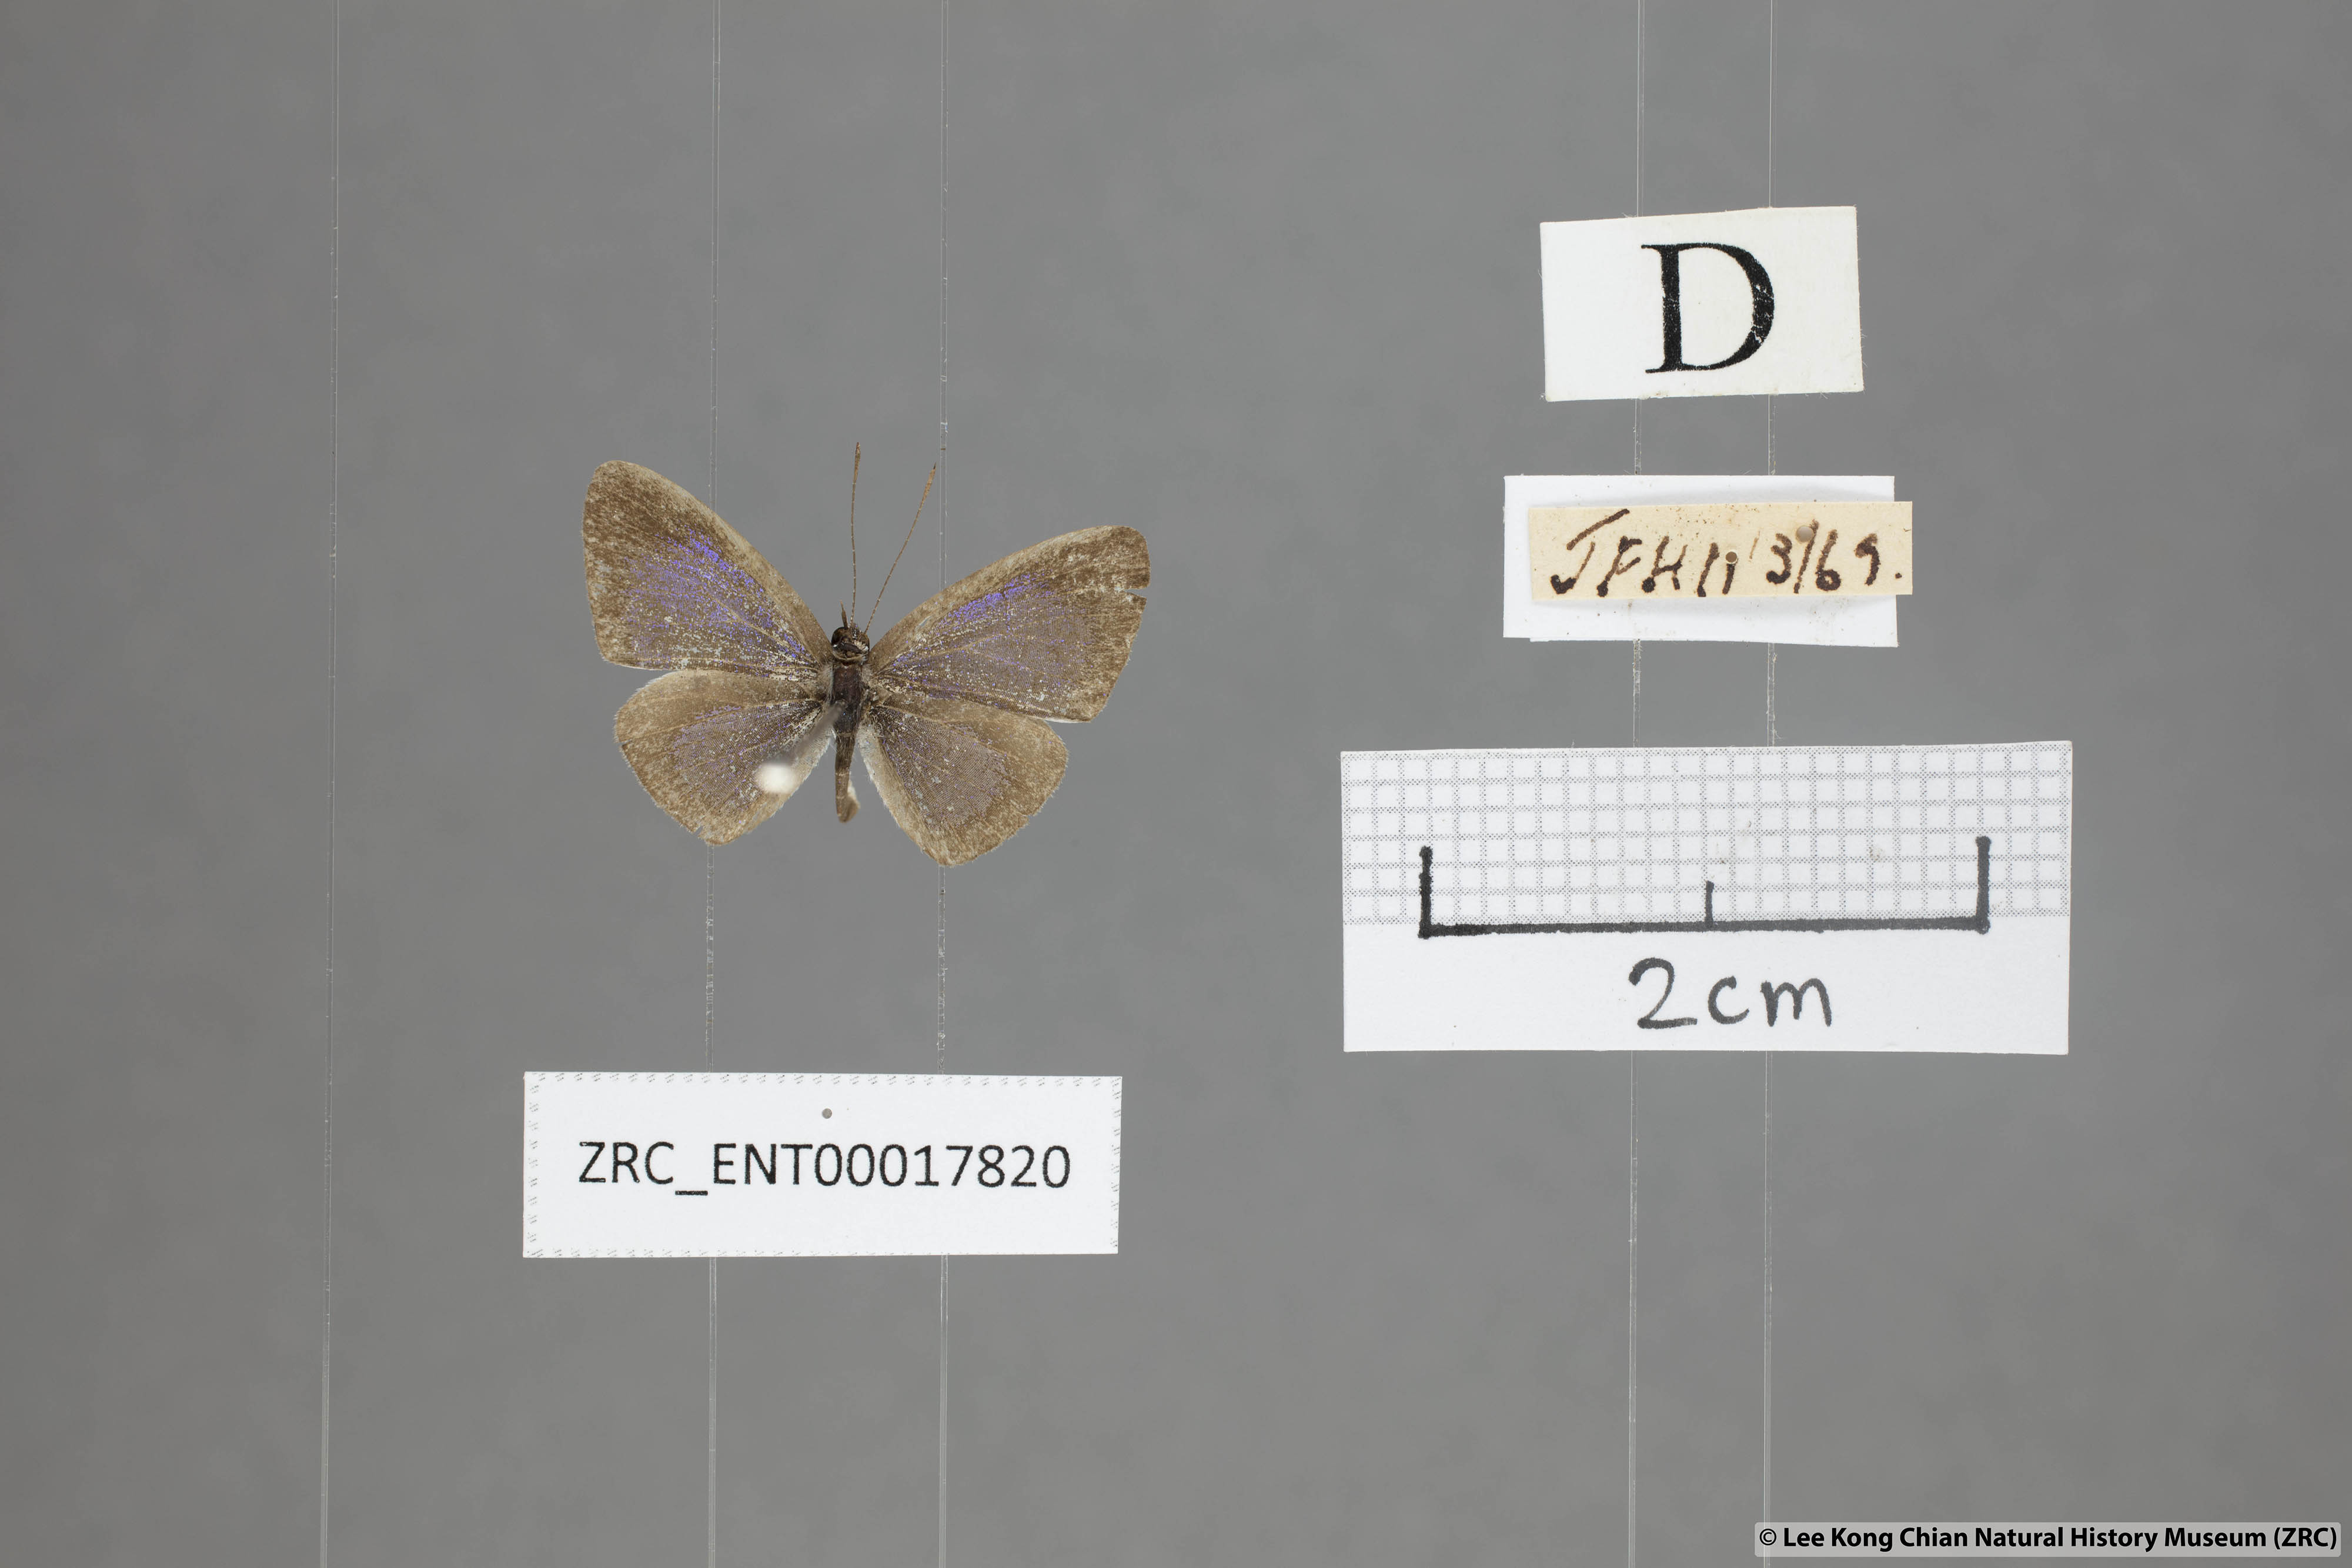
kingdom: Animalia
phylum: Arthropoda
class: Insecta
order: Lepidoptera
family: Lycaenidae
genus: Cebrella
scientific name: Cebrella
